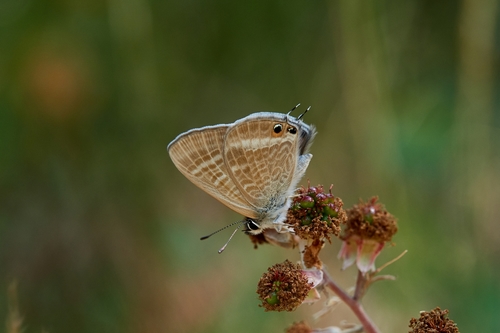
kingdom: Animalia
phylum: Arthropoda
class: Insecta
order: Lepidoptera
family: Lycaenidae
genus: Lampides
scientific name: Lampides boeticus
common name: Long-tailed blue
